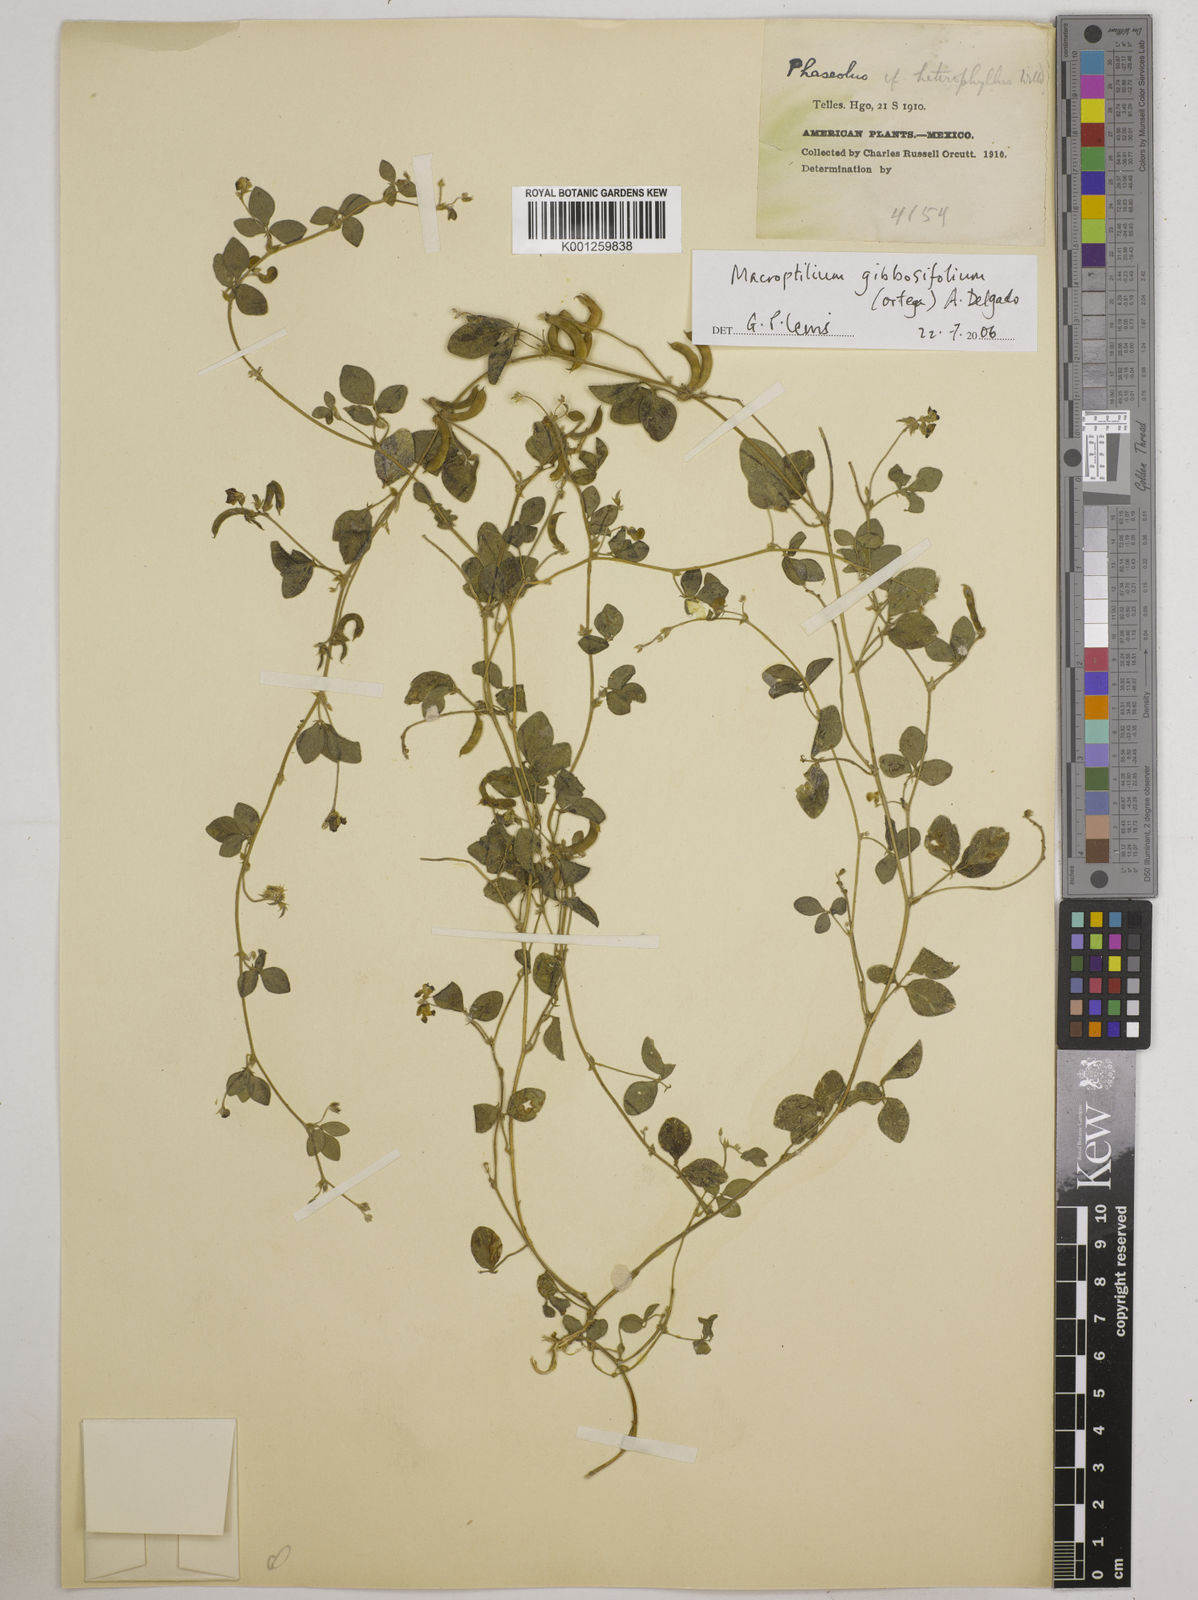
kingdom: Plantae
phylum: Tracheophyta
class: Magnoliopsida
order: Fabales
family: Fabaceae
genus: Macroptilium
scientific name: Macroptilium gibbosifolium
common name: Variableleaf bushbean
